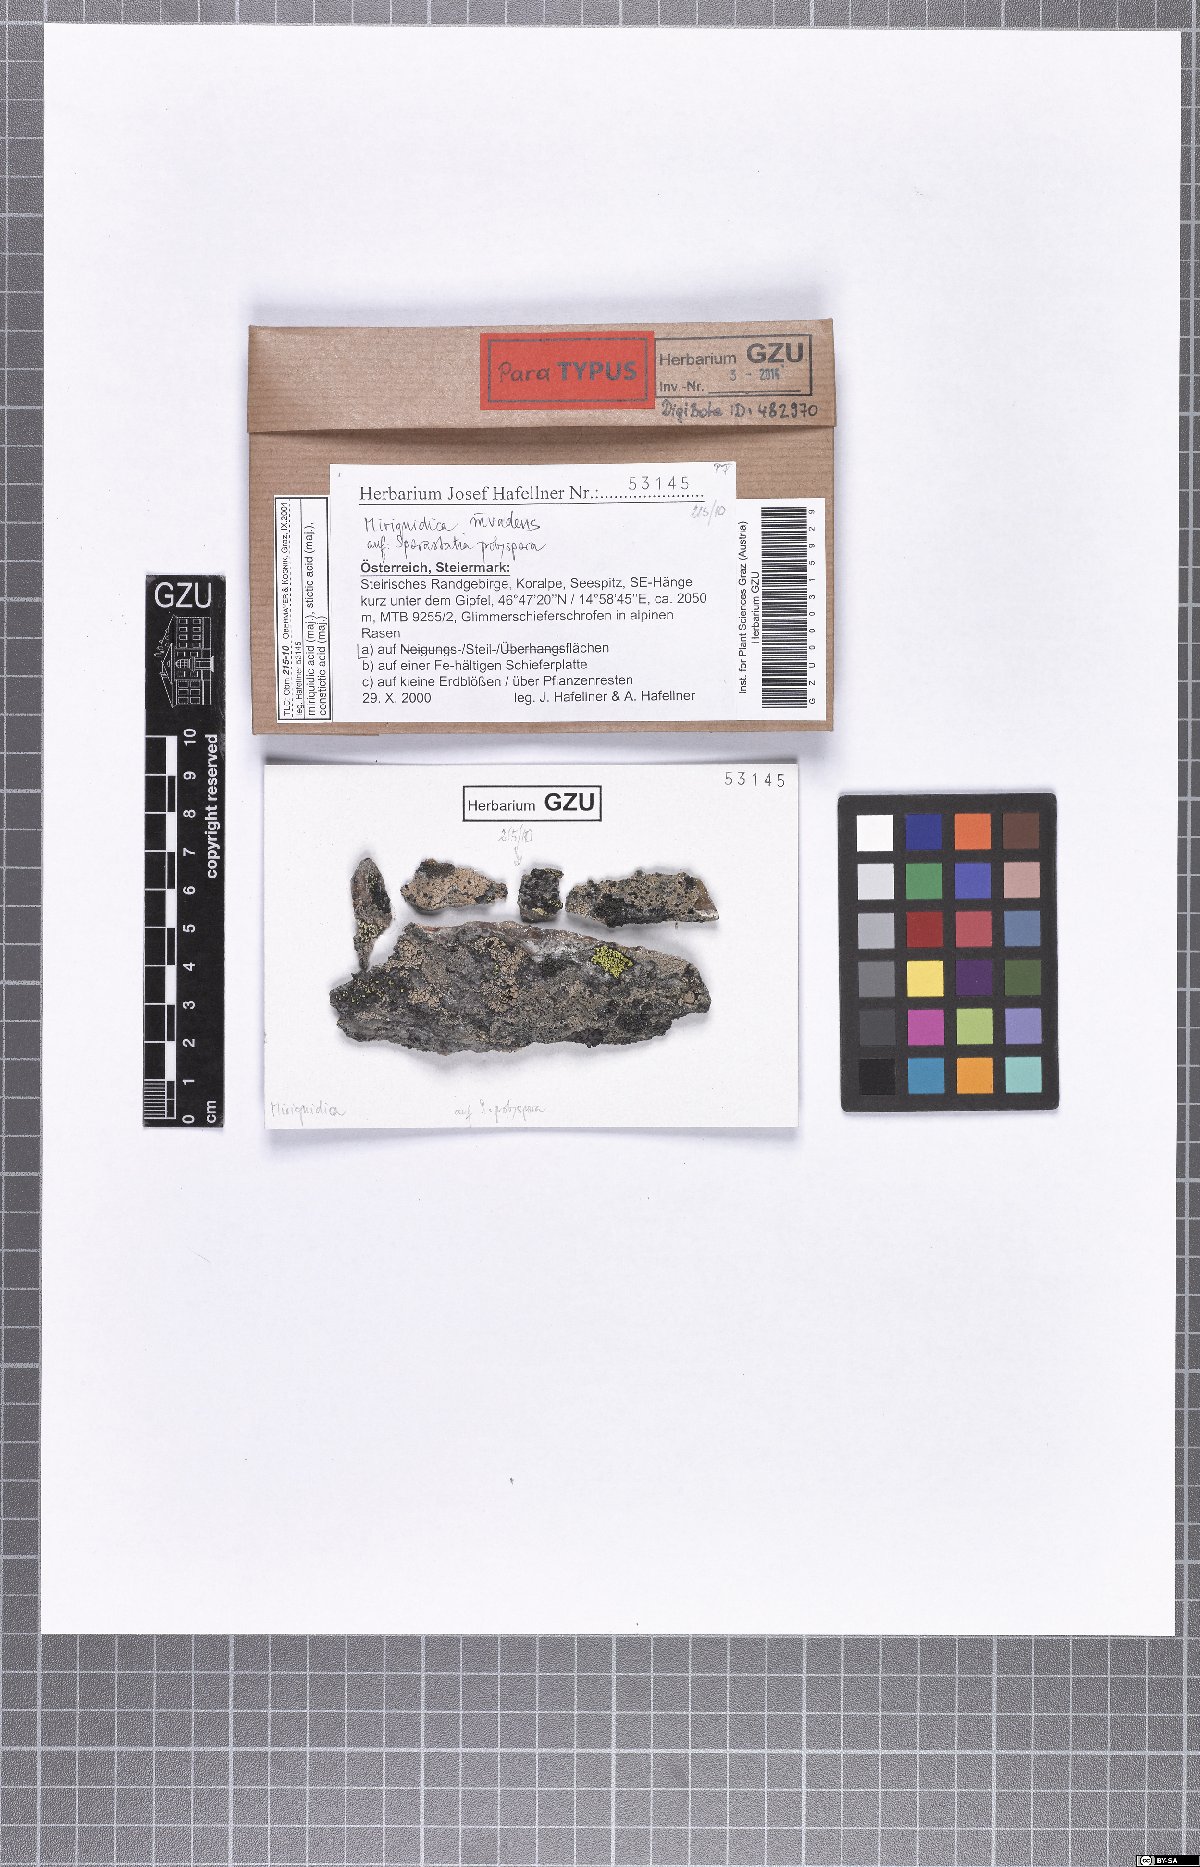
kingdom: Fungi
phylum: Ascomycota
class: Lecanoromycetes
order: Lecanorales
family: Lecanoraceae
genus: Miriquidica
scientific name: Miriquidica invadens
